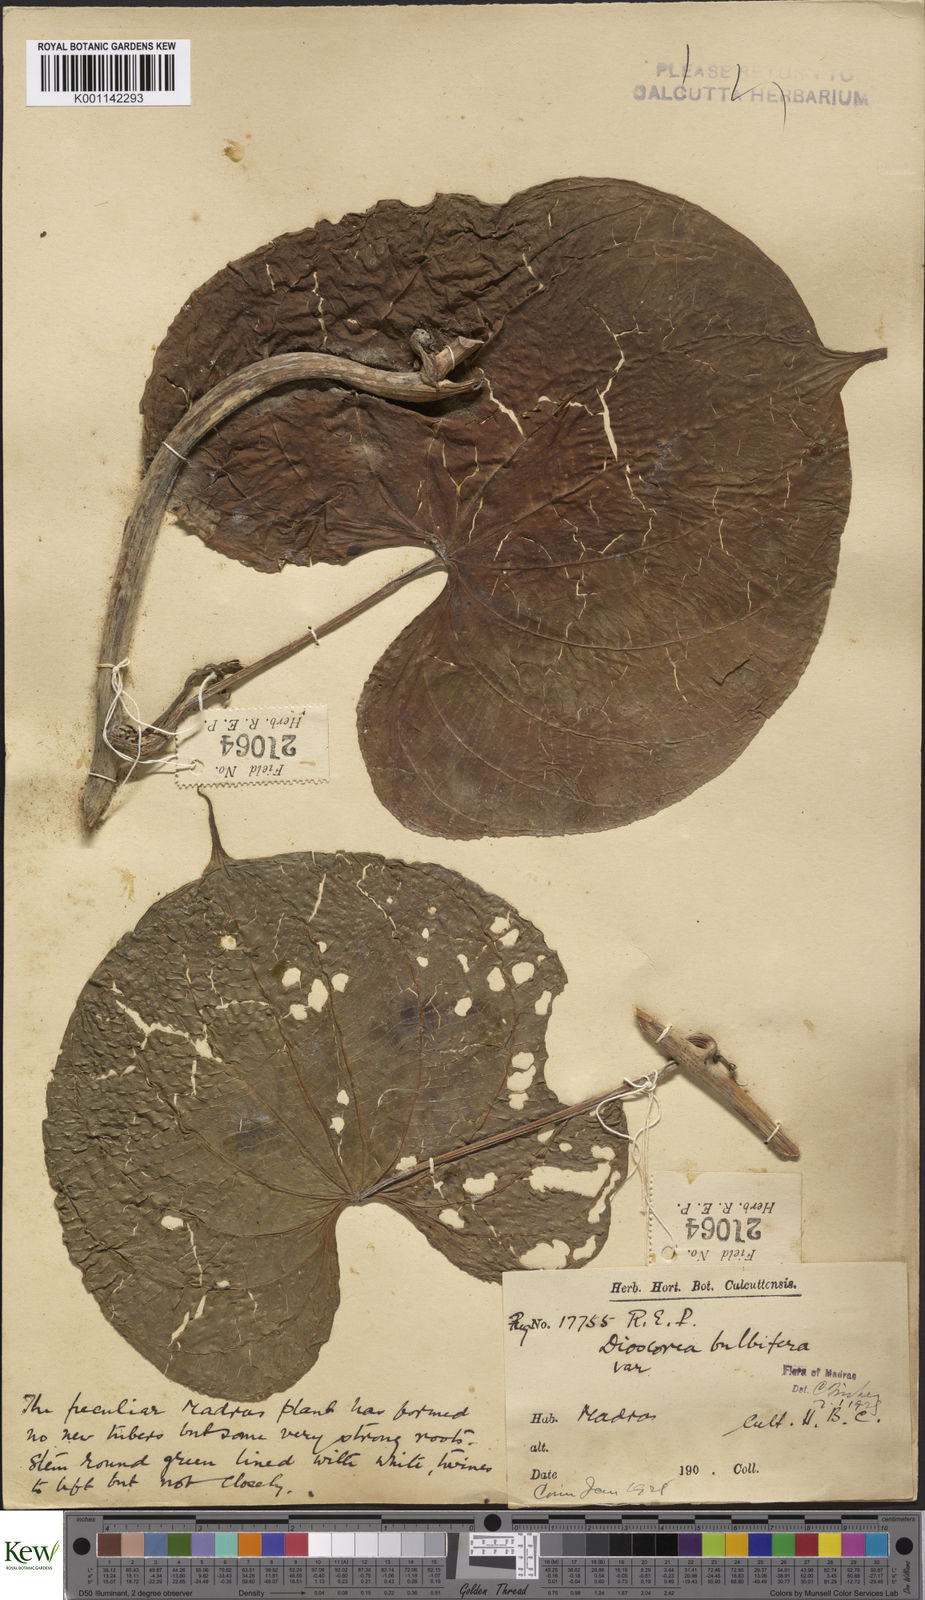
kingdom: Plantae
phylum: Tracheophyta
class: Liliopsida
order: Dioscoreales
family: Dioscoreaceae
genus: Dioscorea
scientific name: Dioscorea bulbifera
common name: Air yam
